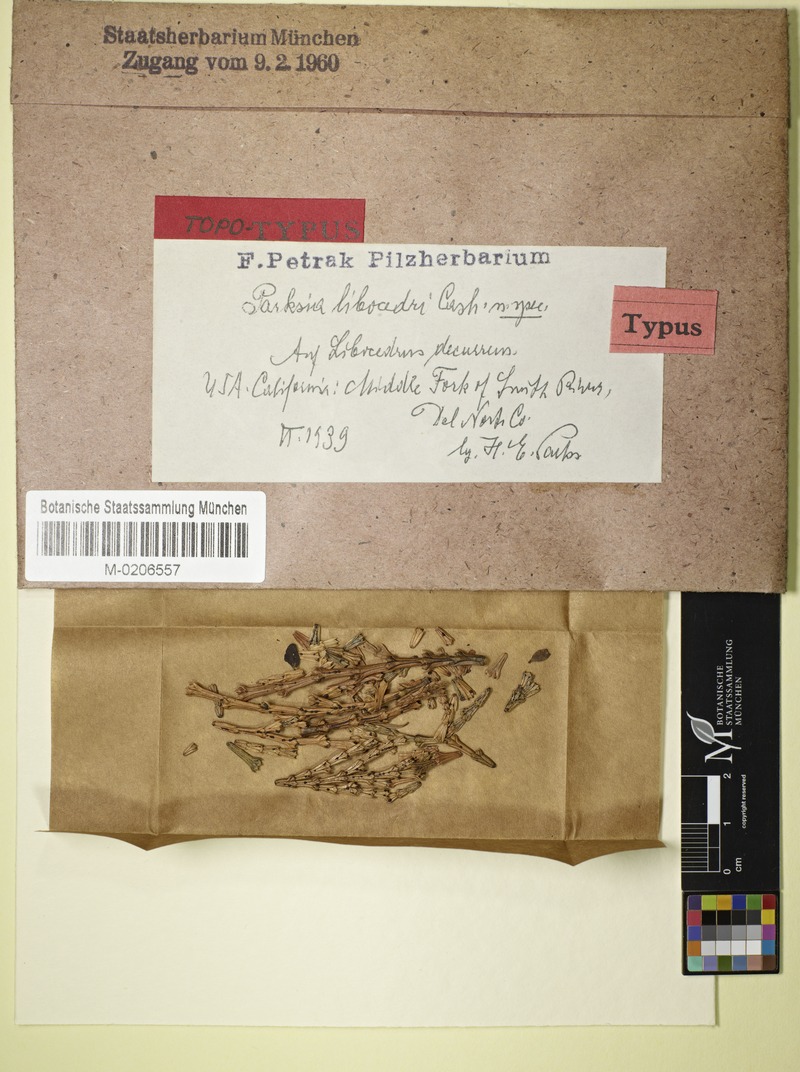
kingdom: Fungi
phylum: Ascomycota
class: Leotiomycetes
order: Helotiales
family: Gelatinodiscaceae
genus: Parksia
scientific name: Parksia libocedri
